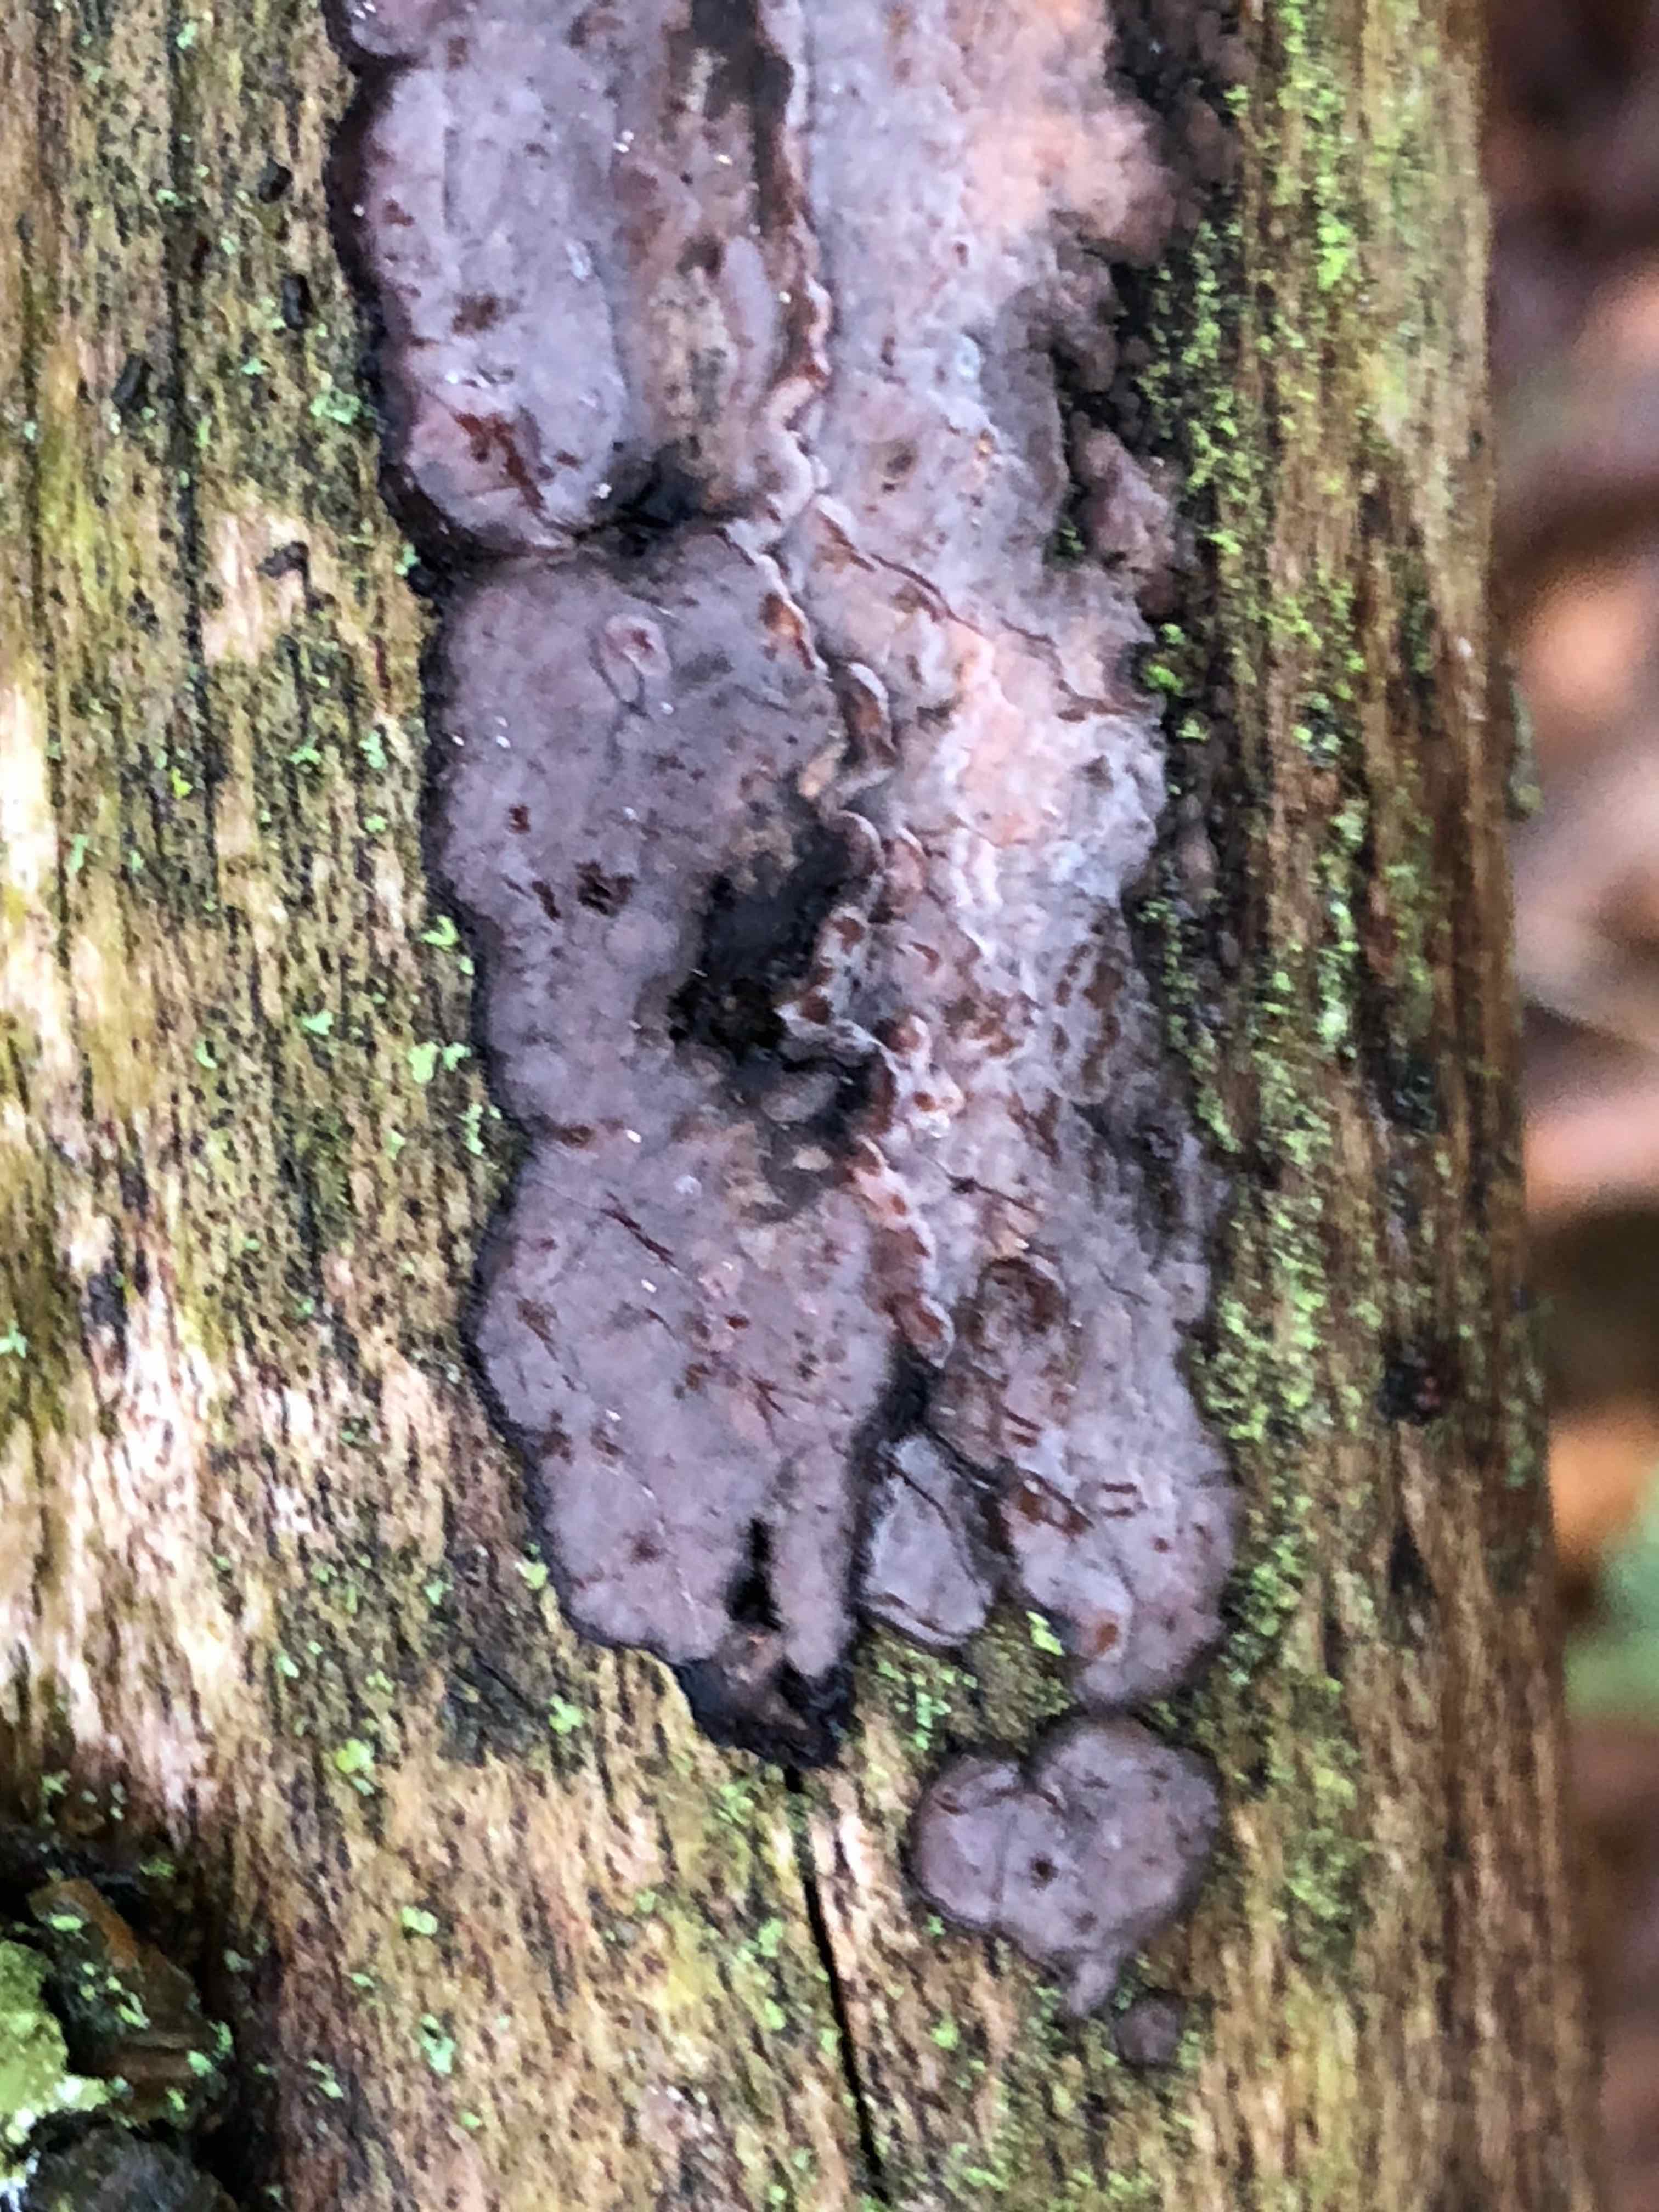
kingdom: Fungi
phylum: Basidiomycota
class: Agaricomycetes
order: Russulales
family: Peniophoraceae
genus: Peniophora
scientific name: Peniophora quercina
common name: ege-voksskind
